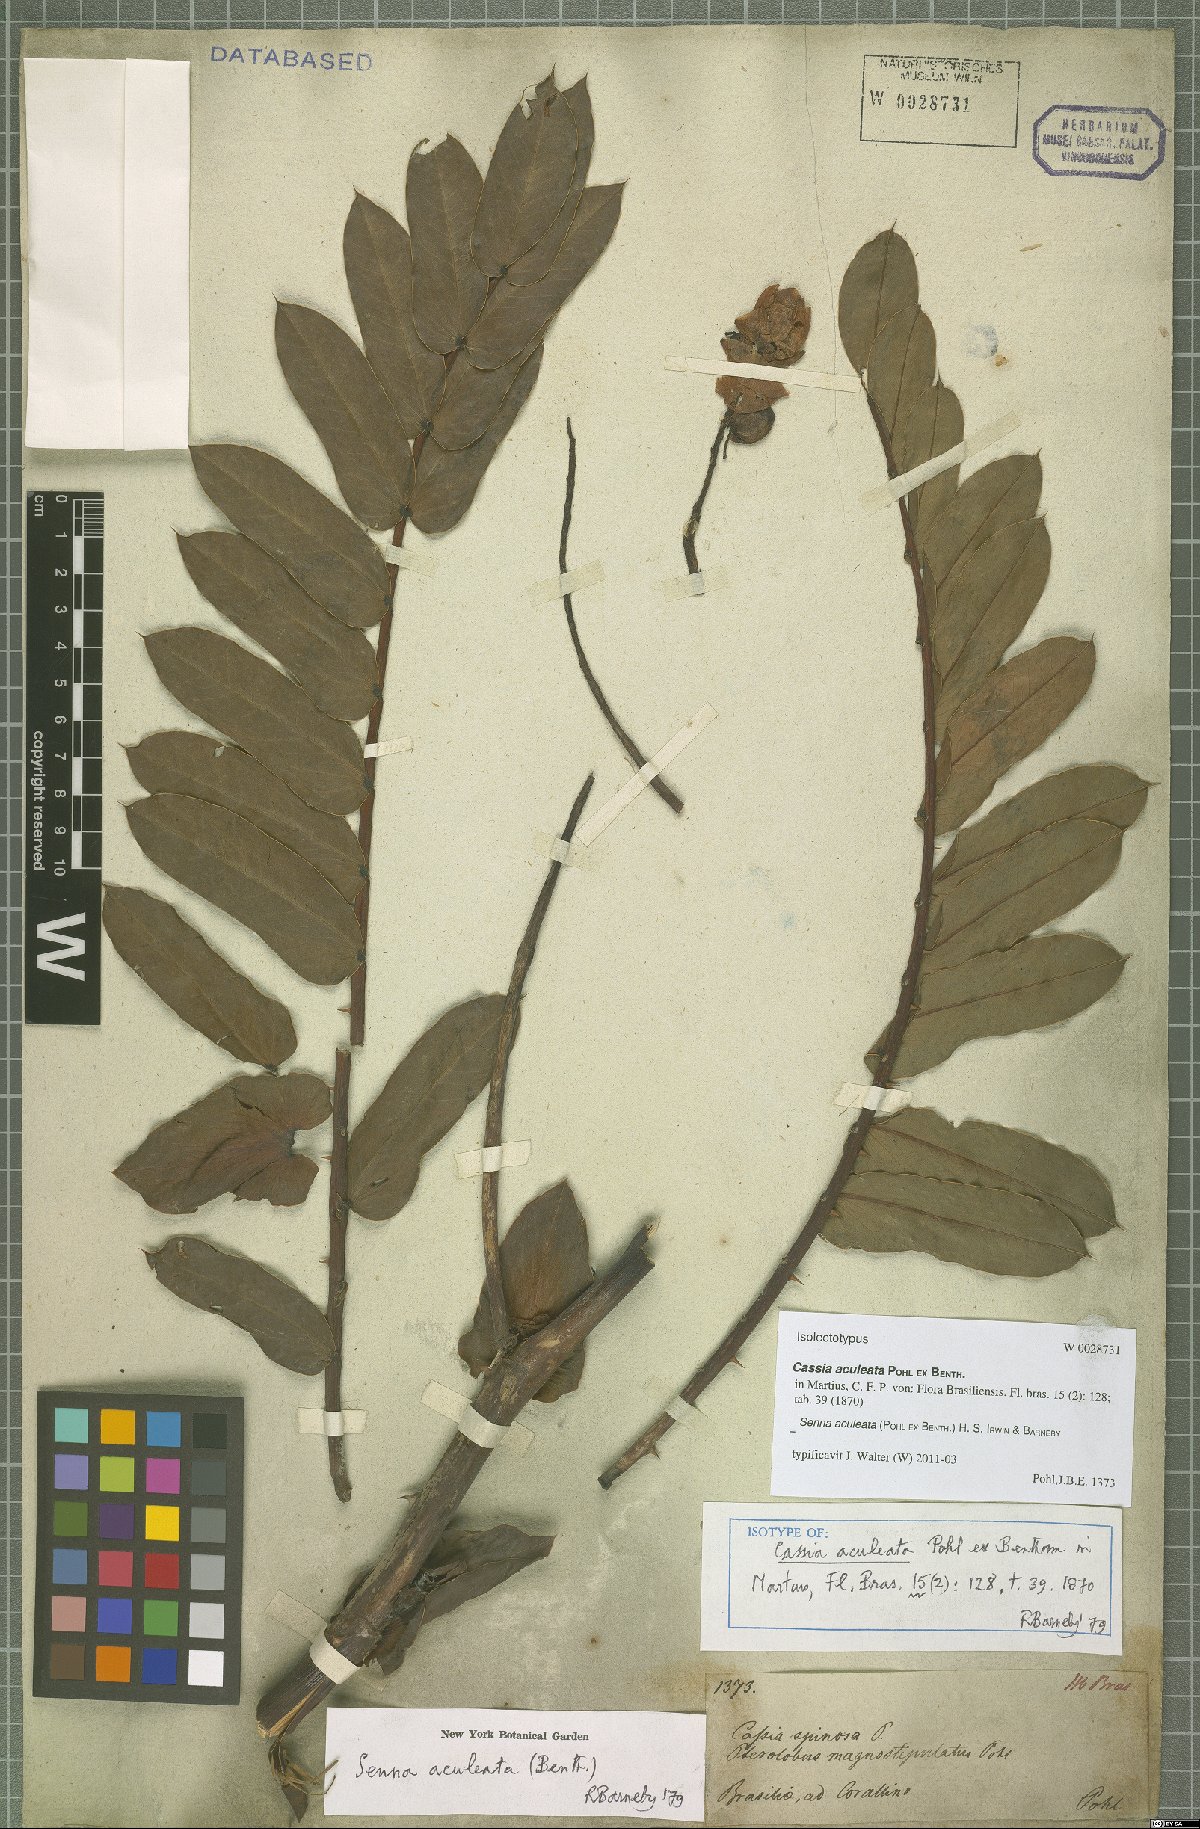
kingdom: Plantae
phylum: Tracheophyta
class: Magnoliopsida
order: Fabales
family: Fabaceae
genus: Senna
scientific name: Senna aculeata
